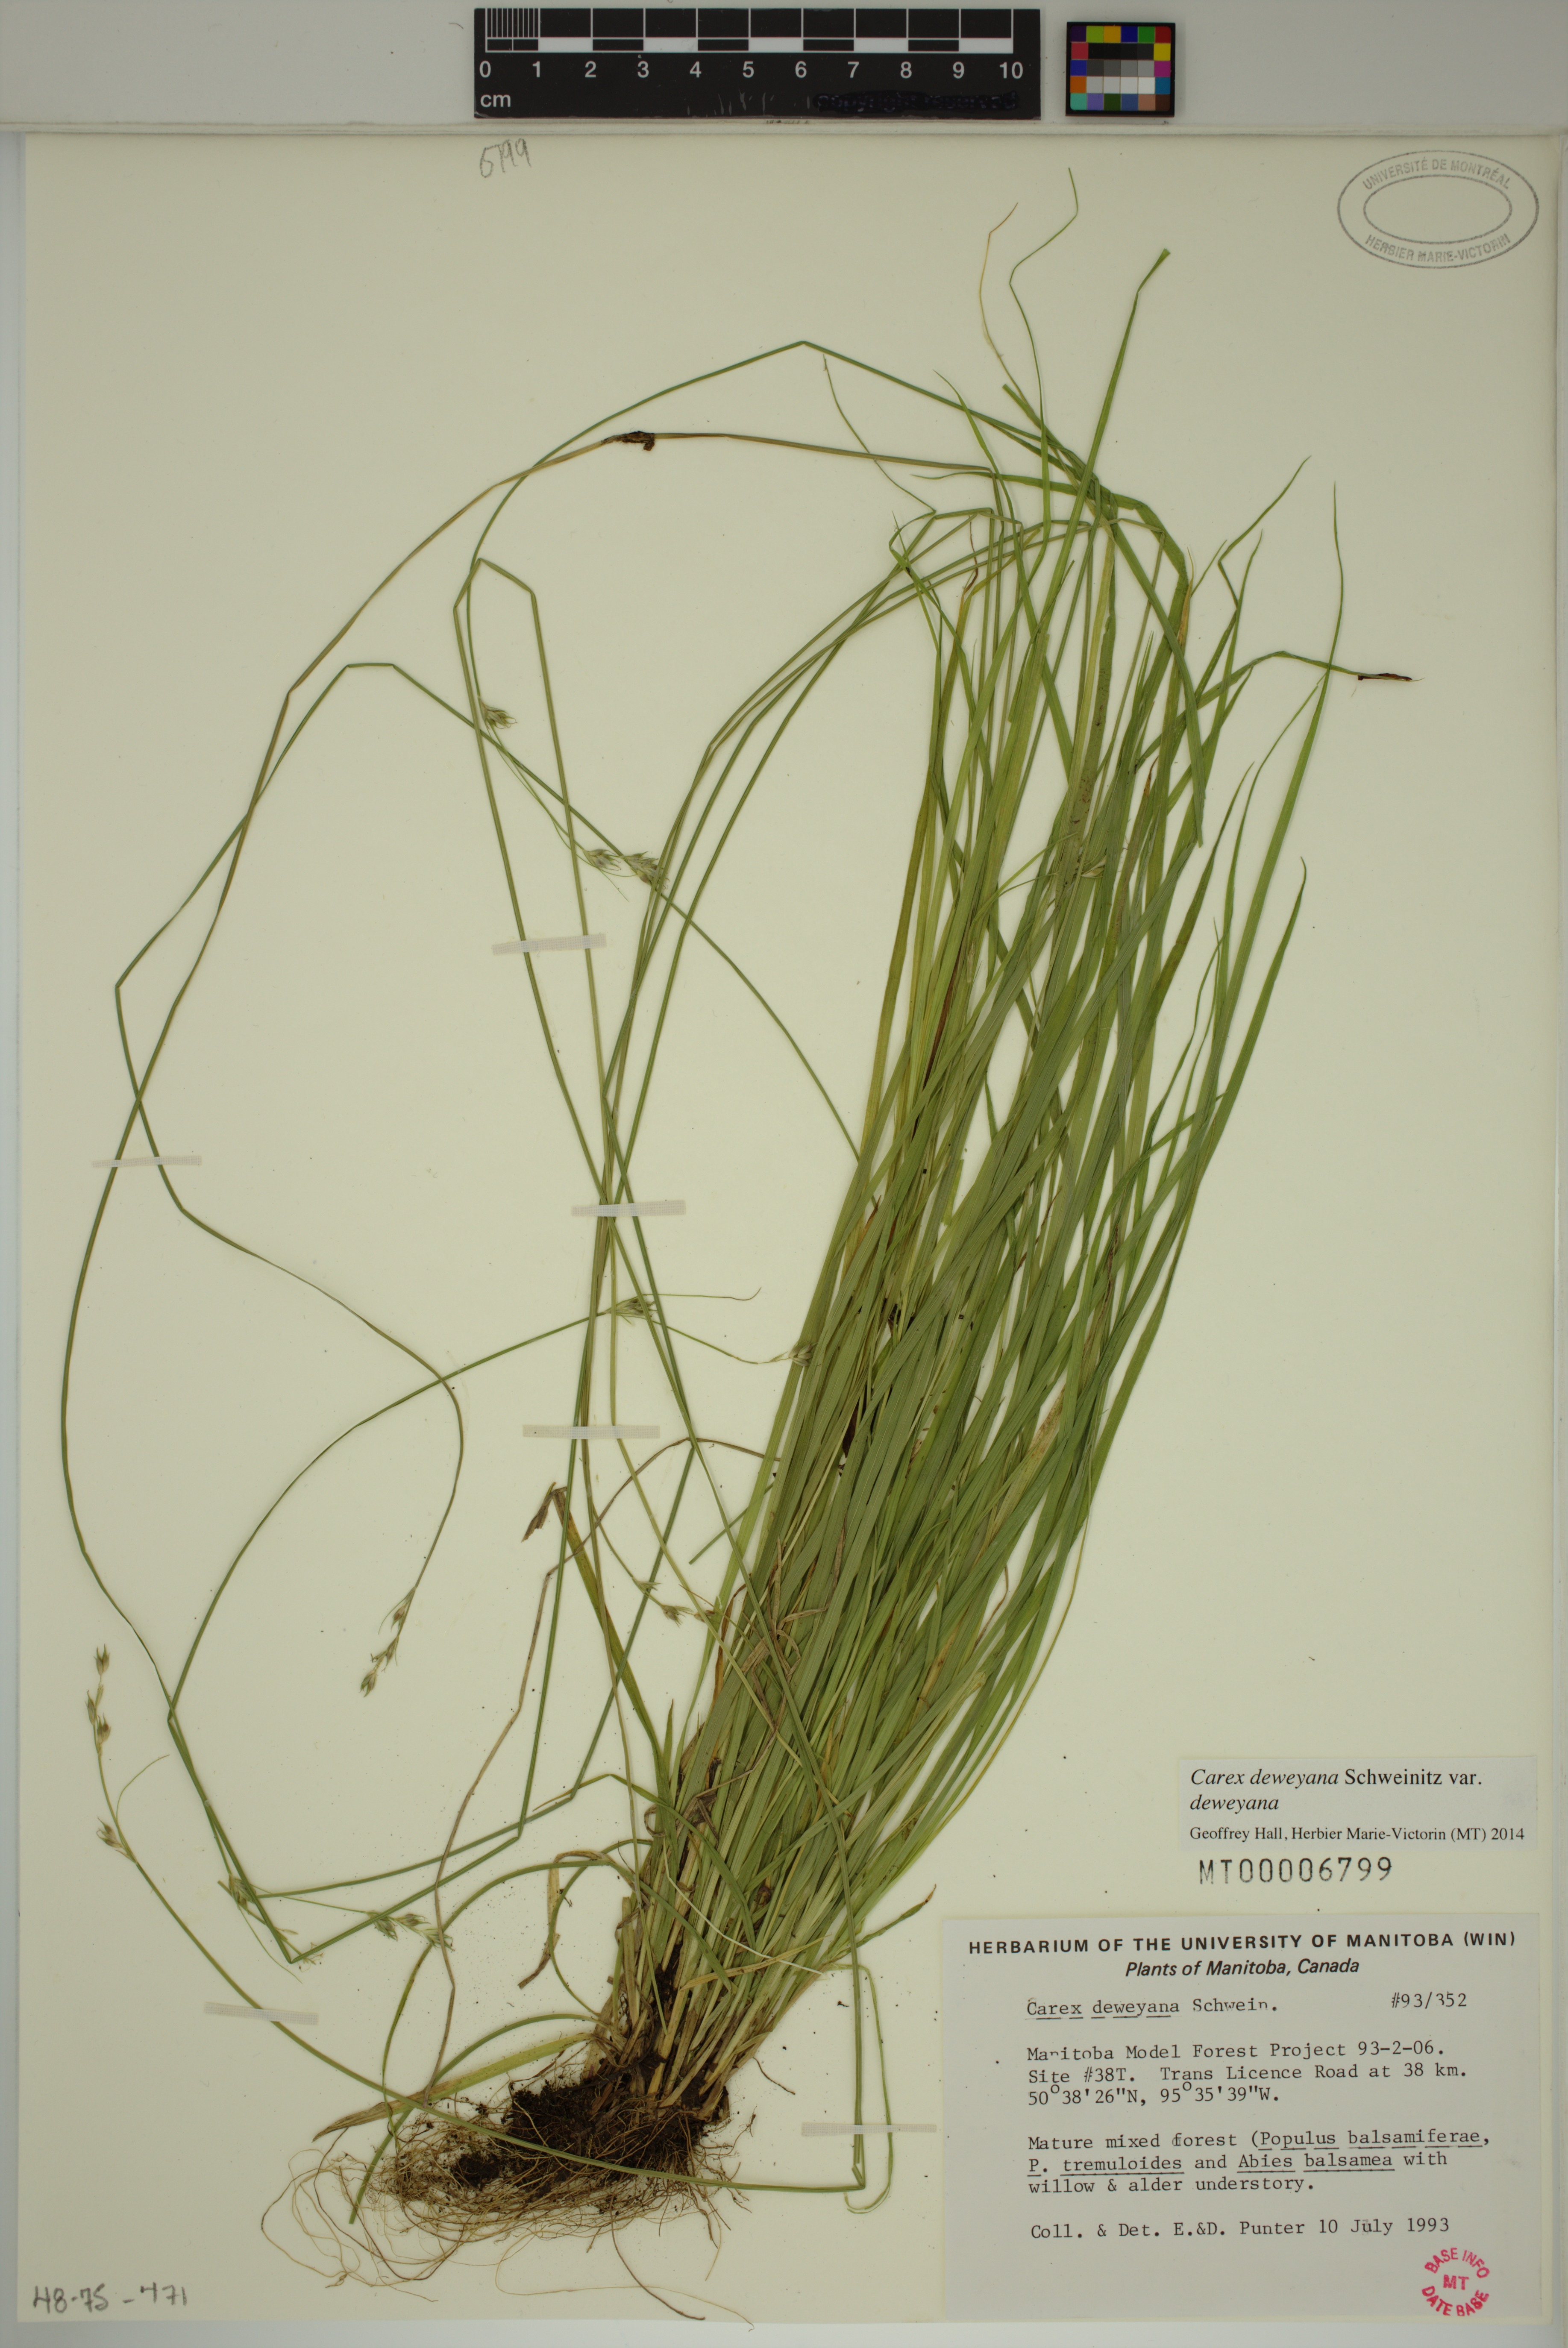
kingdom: Plantae
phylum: Tracheophyta
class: Liliopsida
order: Poales
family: Cyperaceae
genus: Carex
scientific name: Carex deweyana
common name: Dewey's sedge
